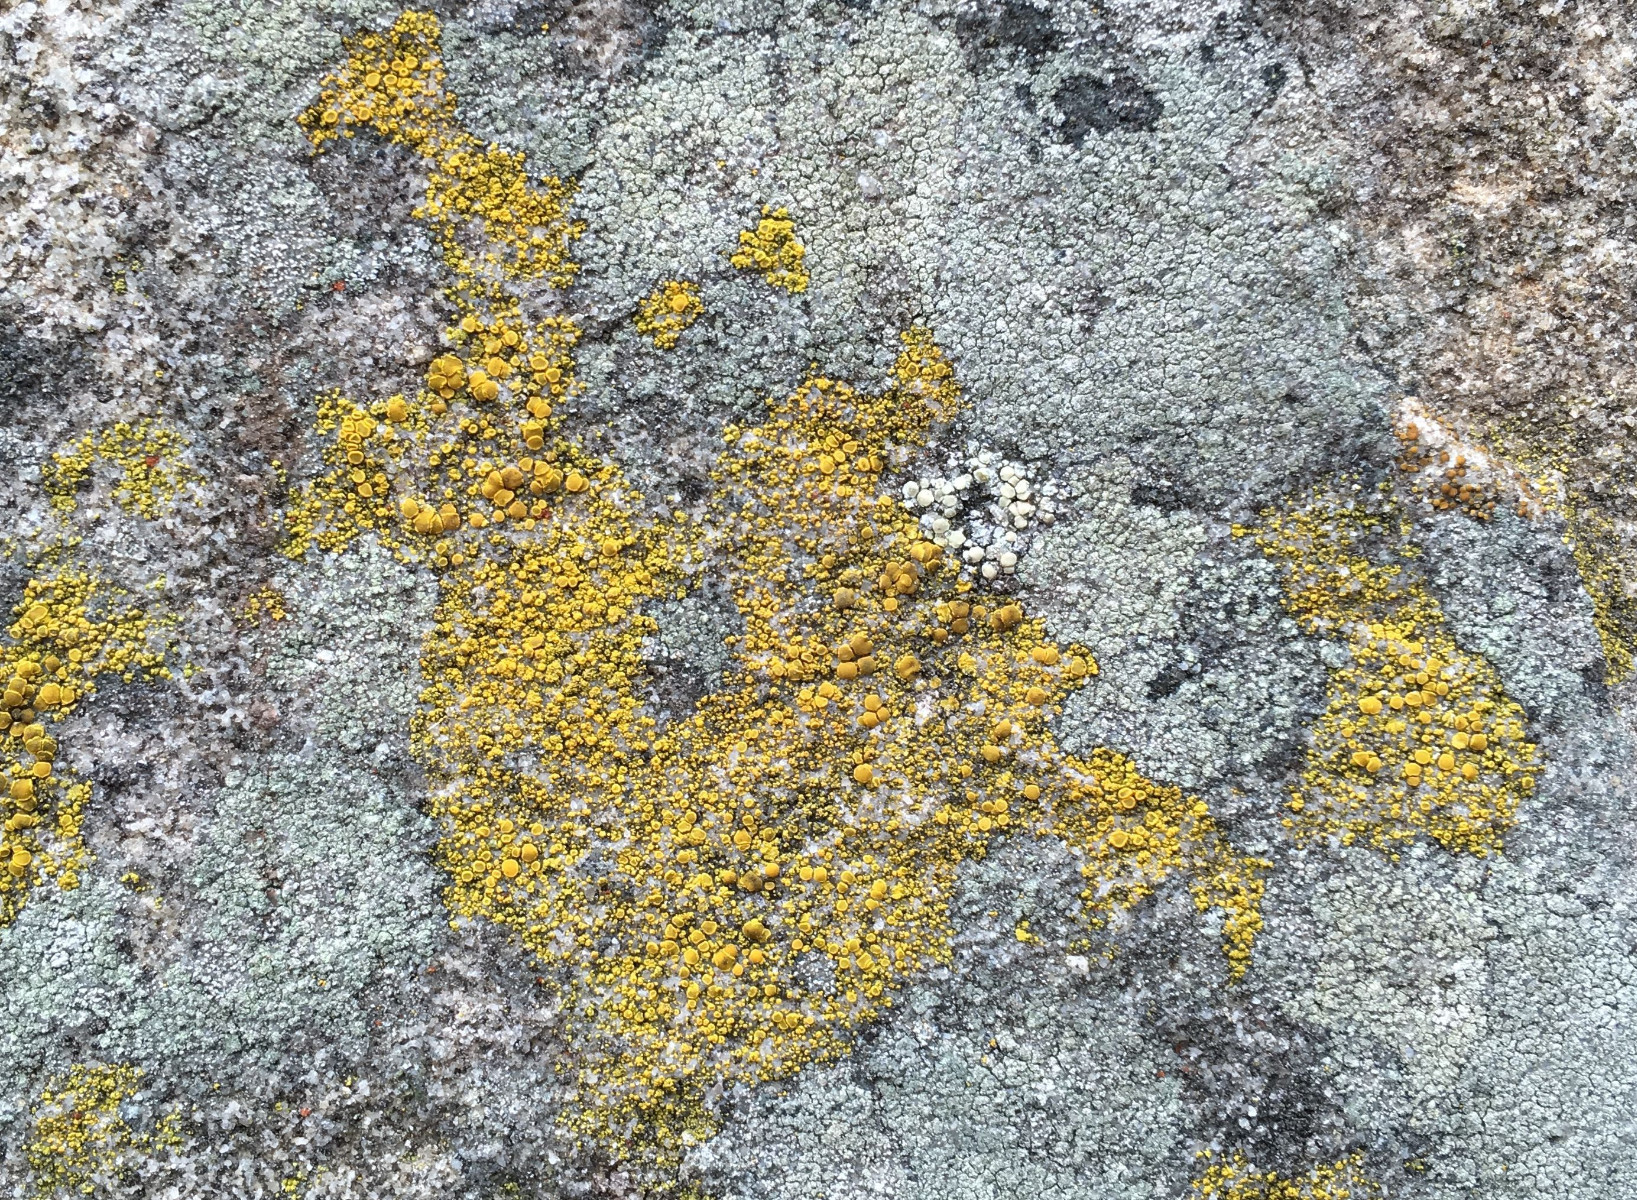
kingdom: Fungi
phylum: Ascomycota
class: Candelariomycetes
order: Candelariales
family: Candelariaceae
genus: Candelariella
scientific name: Candelariella vitellina
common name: almindelig æggeblommelav
